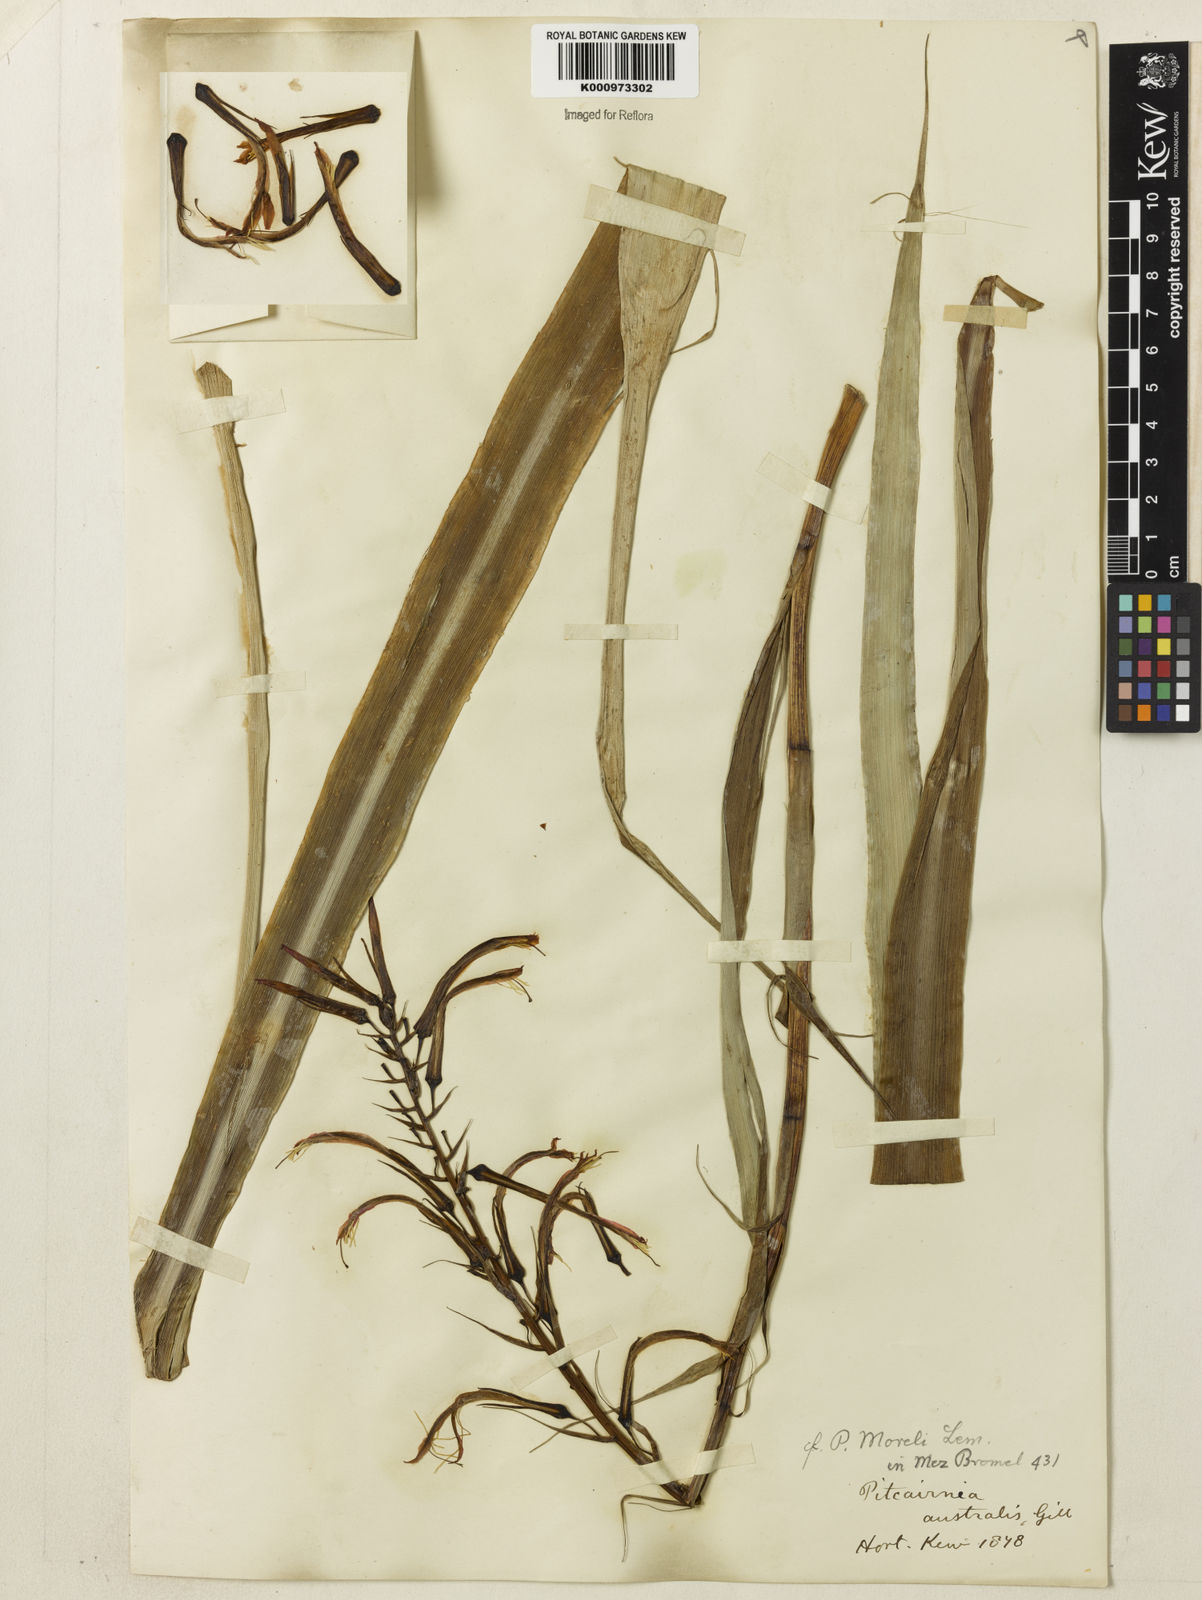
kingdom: Plantae
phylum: Tracheophyta
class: Liliopsida
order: Poales
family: Bromeliaceae
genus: Pitcairnia
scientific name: Pitcairnia flammea
